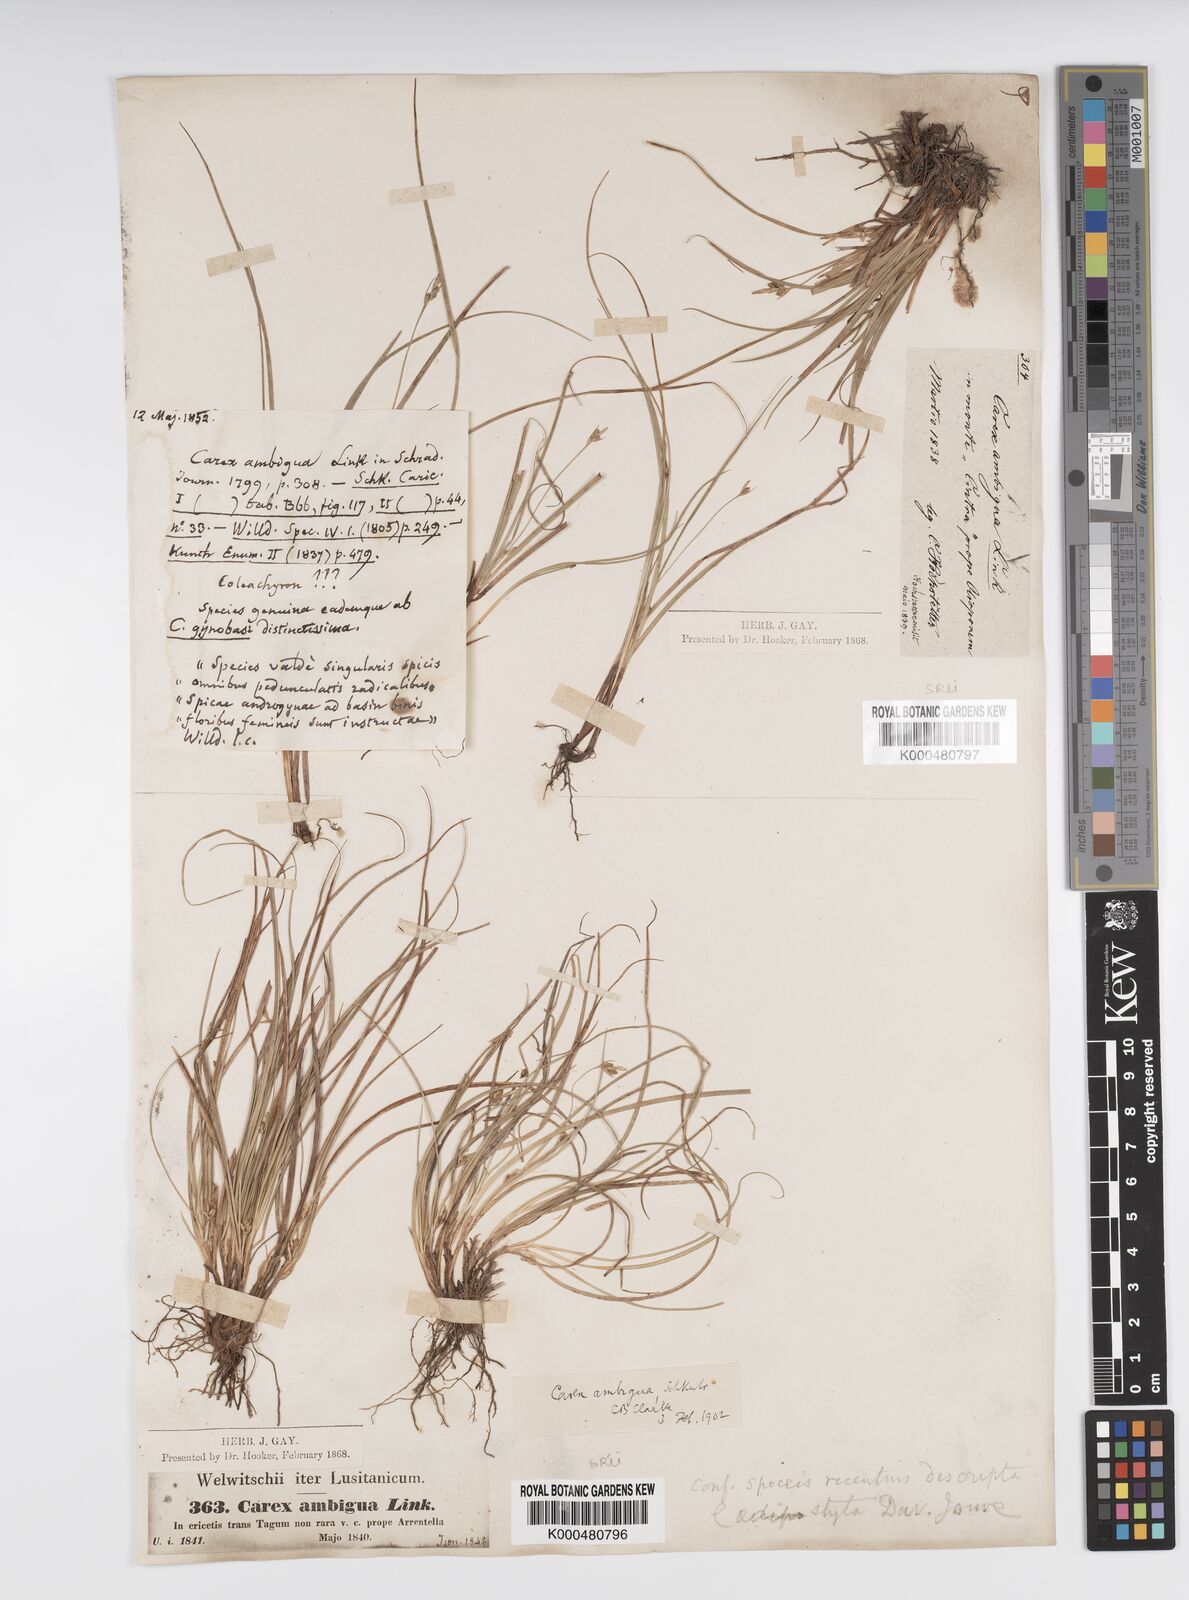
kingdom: Plantae
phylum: Tracheophyta
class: Liliopsida
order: Poales
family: Cyperaceae
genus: Carex
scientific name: Carex
